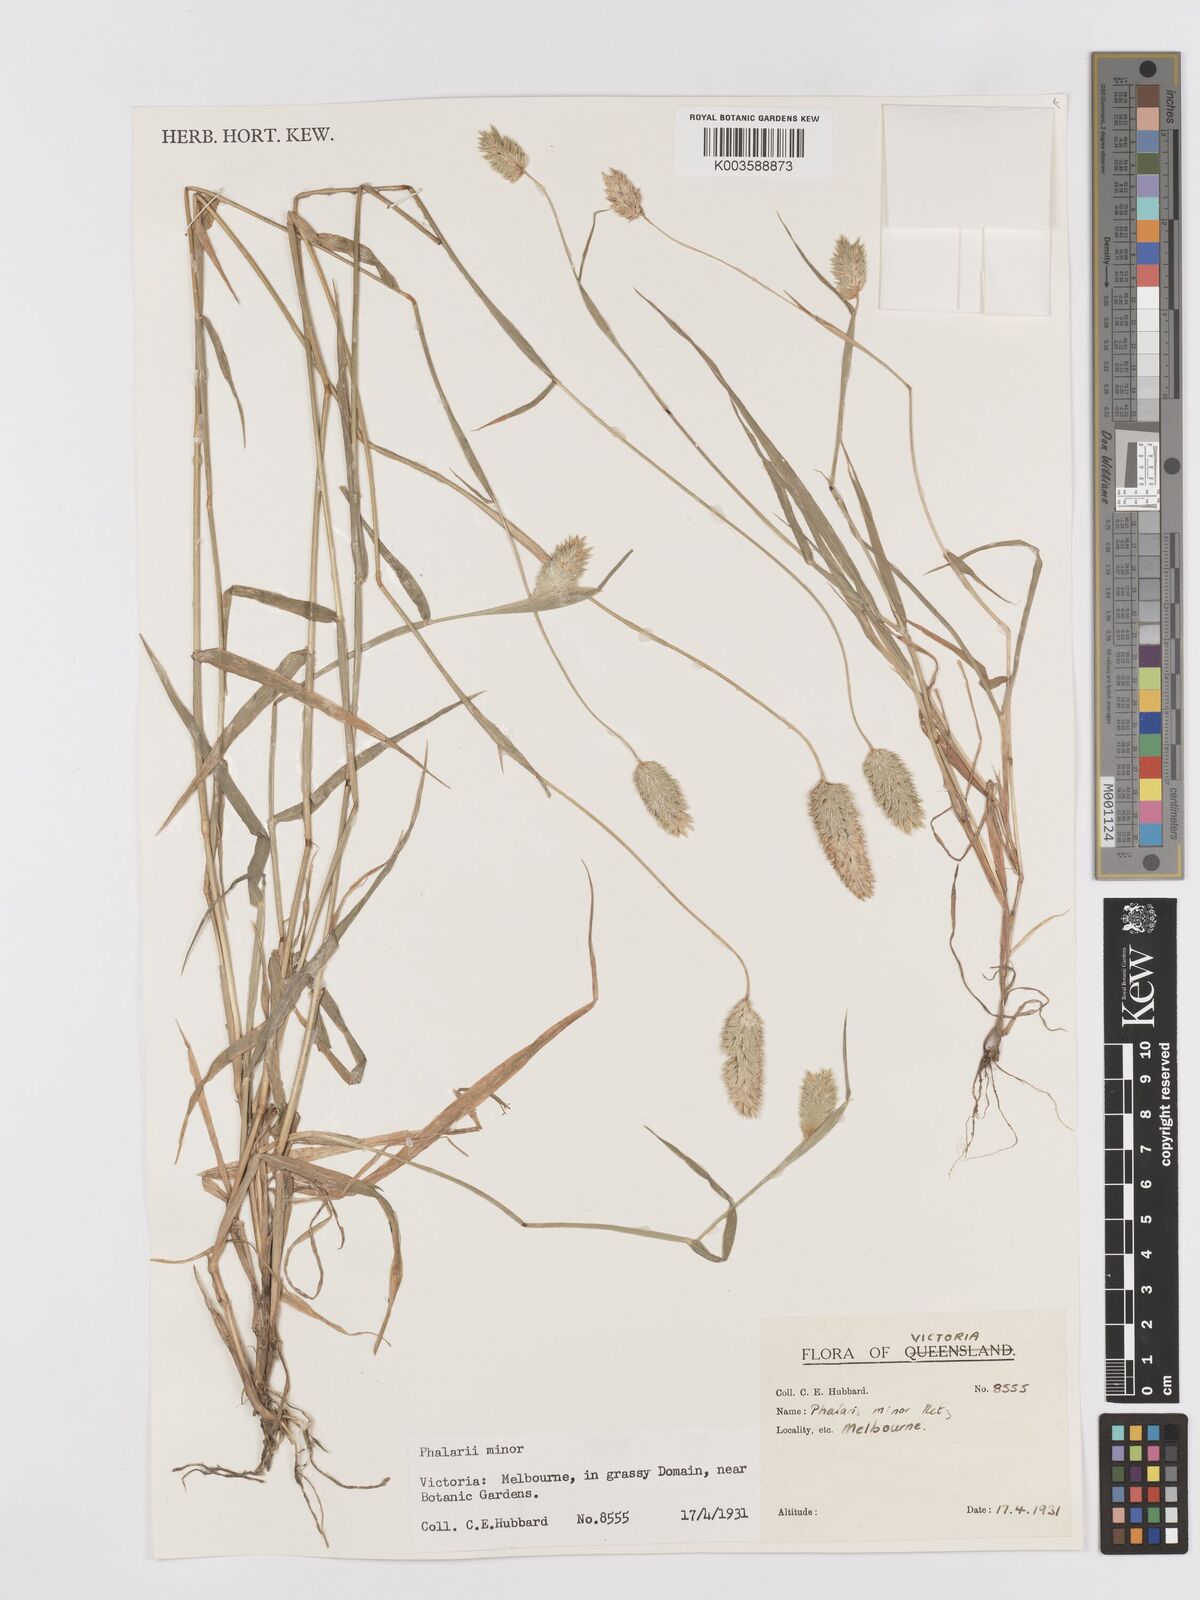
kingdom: Plantae
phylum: Tracheophyta
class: Liliopsida
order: Poales
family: Poaceae
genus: Phalaris
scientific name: Phalaris minor
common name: Littleseed canarygrass
